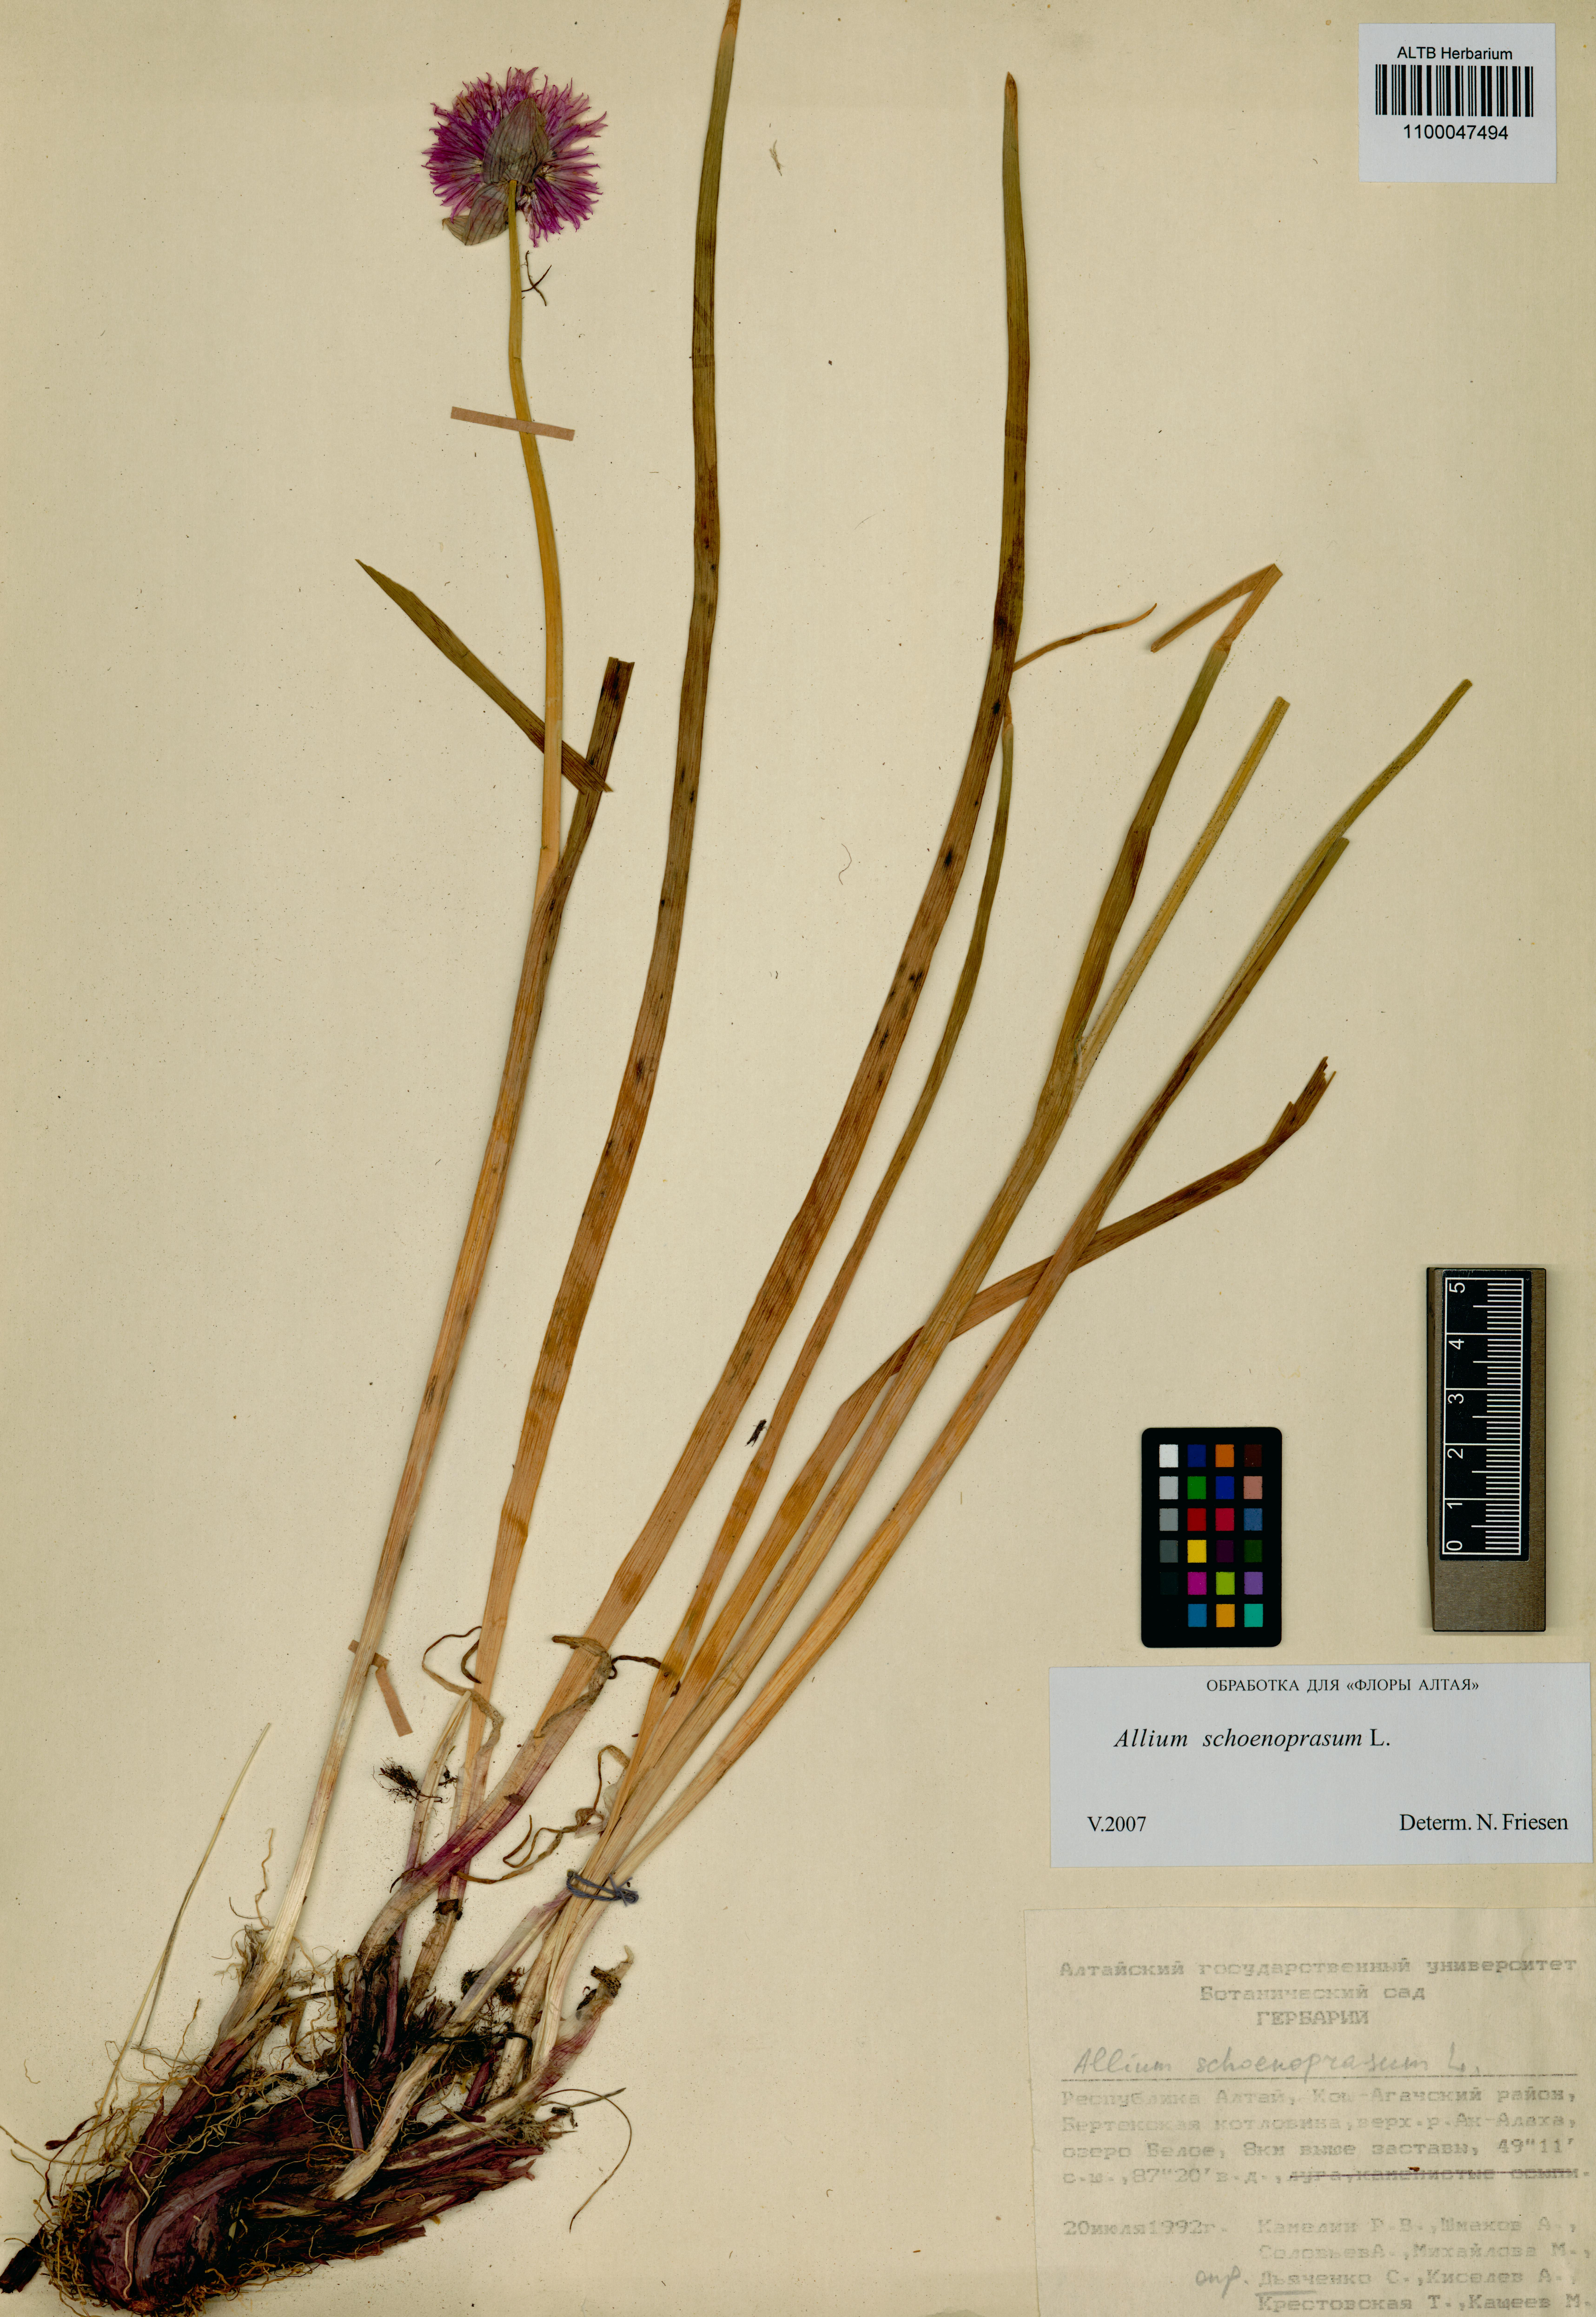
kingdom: Plantae
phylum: Tracheophyta
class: Liliopsida
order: Asparagales
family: Amaryllidaceae
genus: Allium
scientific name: Allium schoenoprasum
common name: Chives
